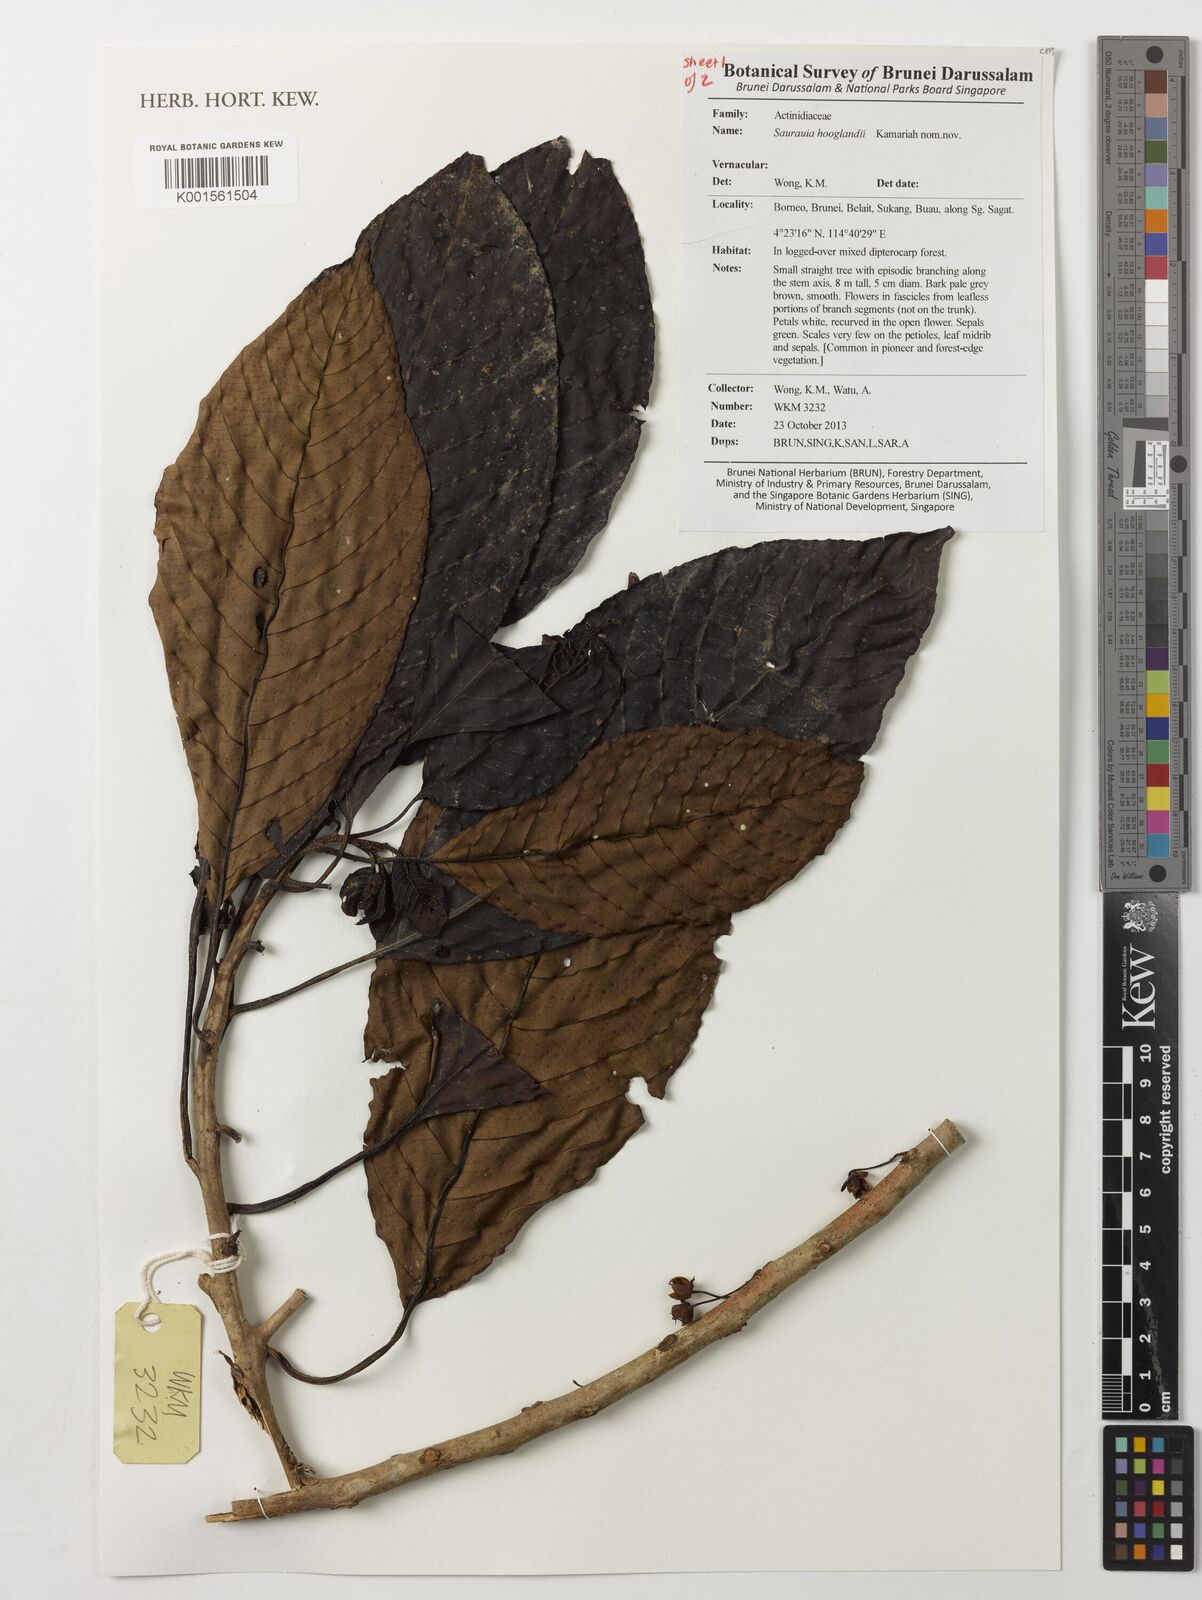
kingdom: Plantae
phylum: Tracheophyta
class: Magnoliopsida
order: Ericales
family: Actinidiaceae
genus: Saurauia
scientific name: Saurauia
